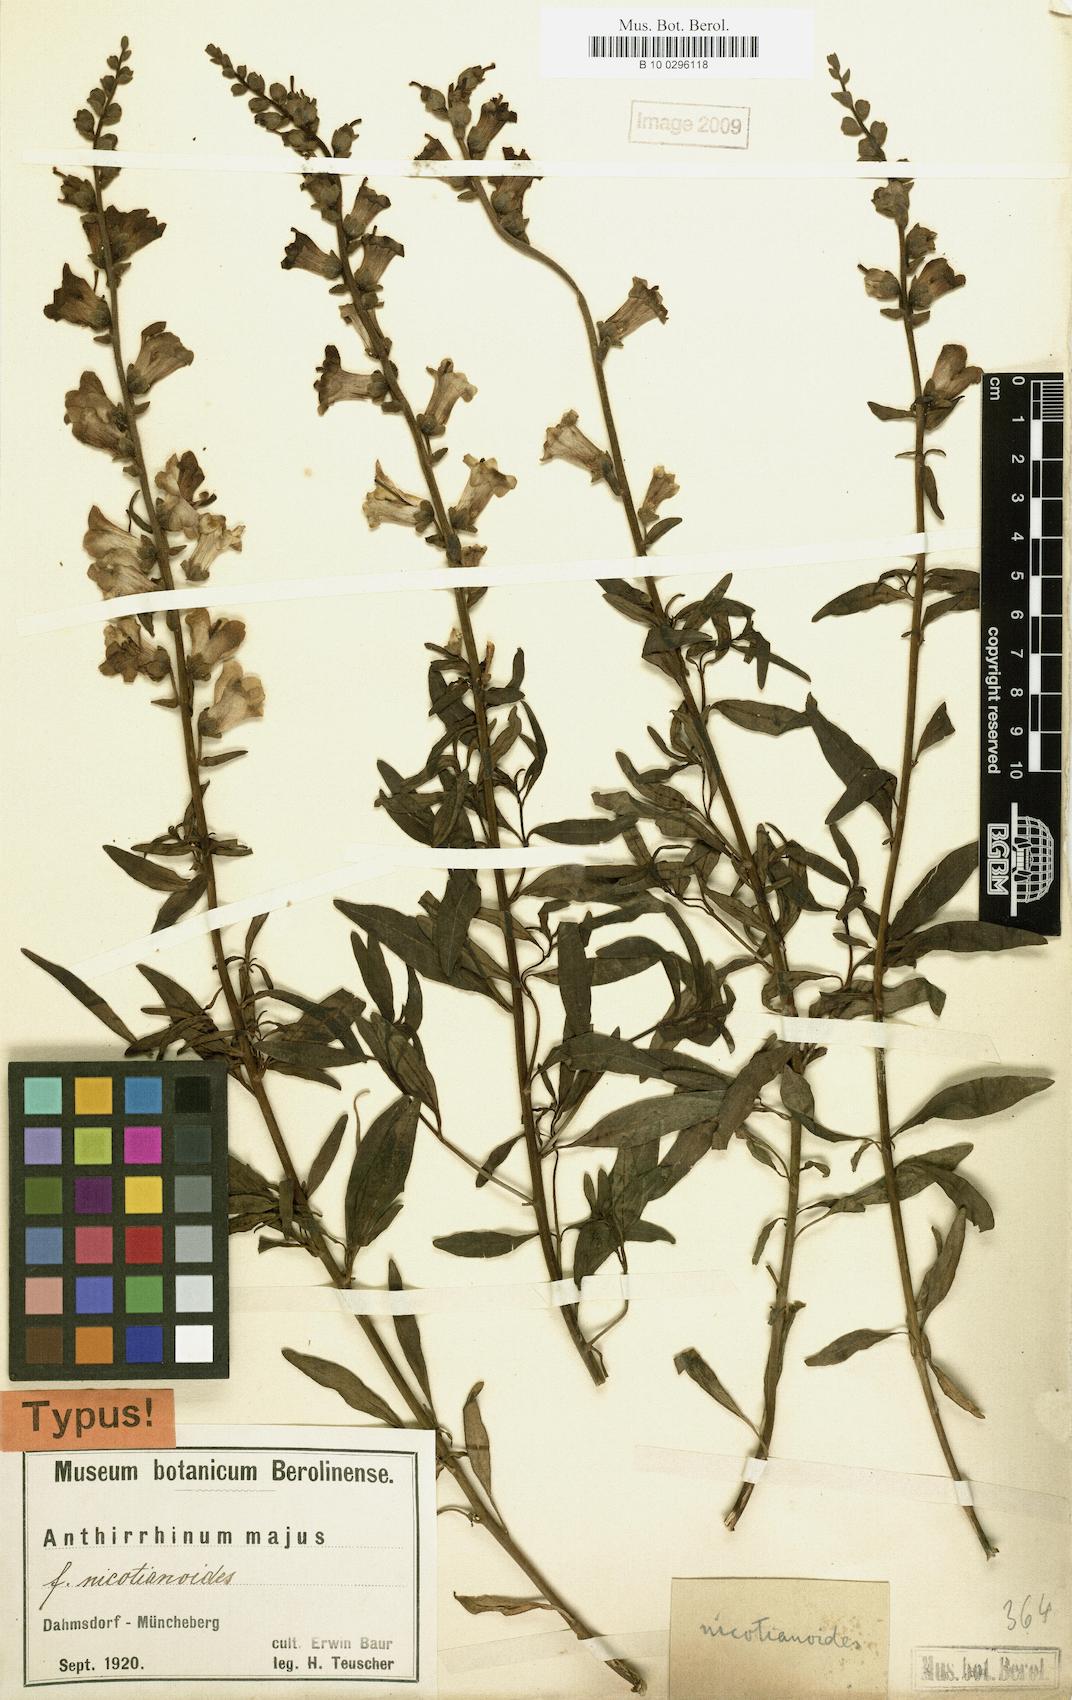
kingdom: Plantae
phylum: Tracheophyta
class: Magnoliopsida
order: Lamiales
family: Plantaginaceae
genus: Antirrhinum
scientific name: Antirrhinum majus
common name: Snapdragon
